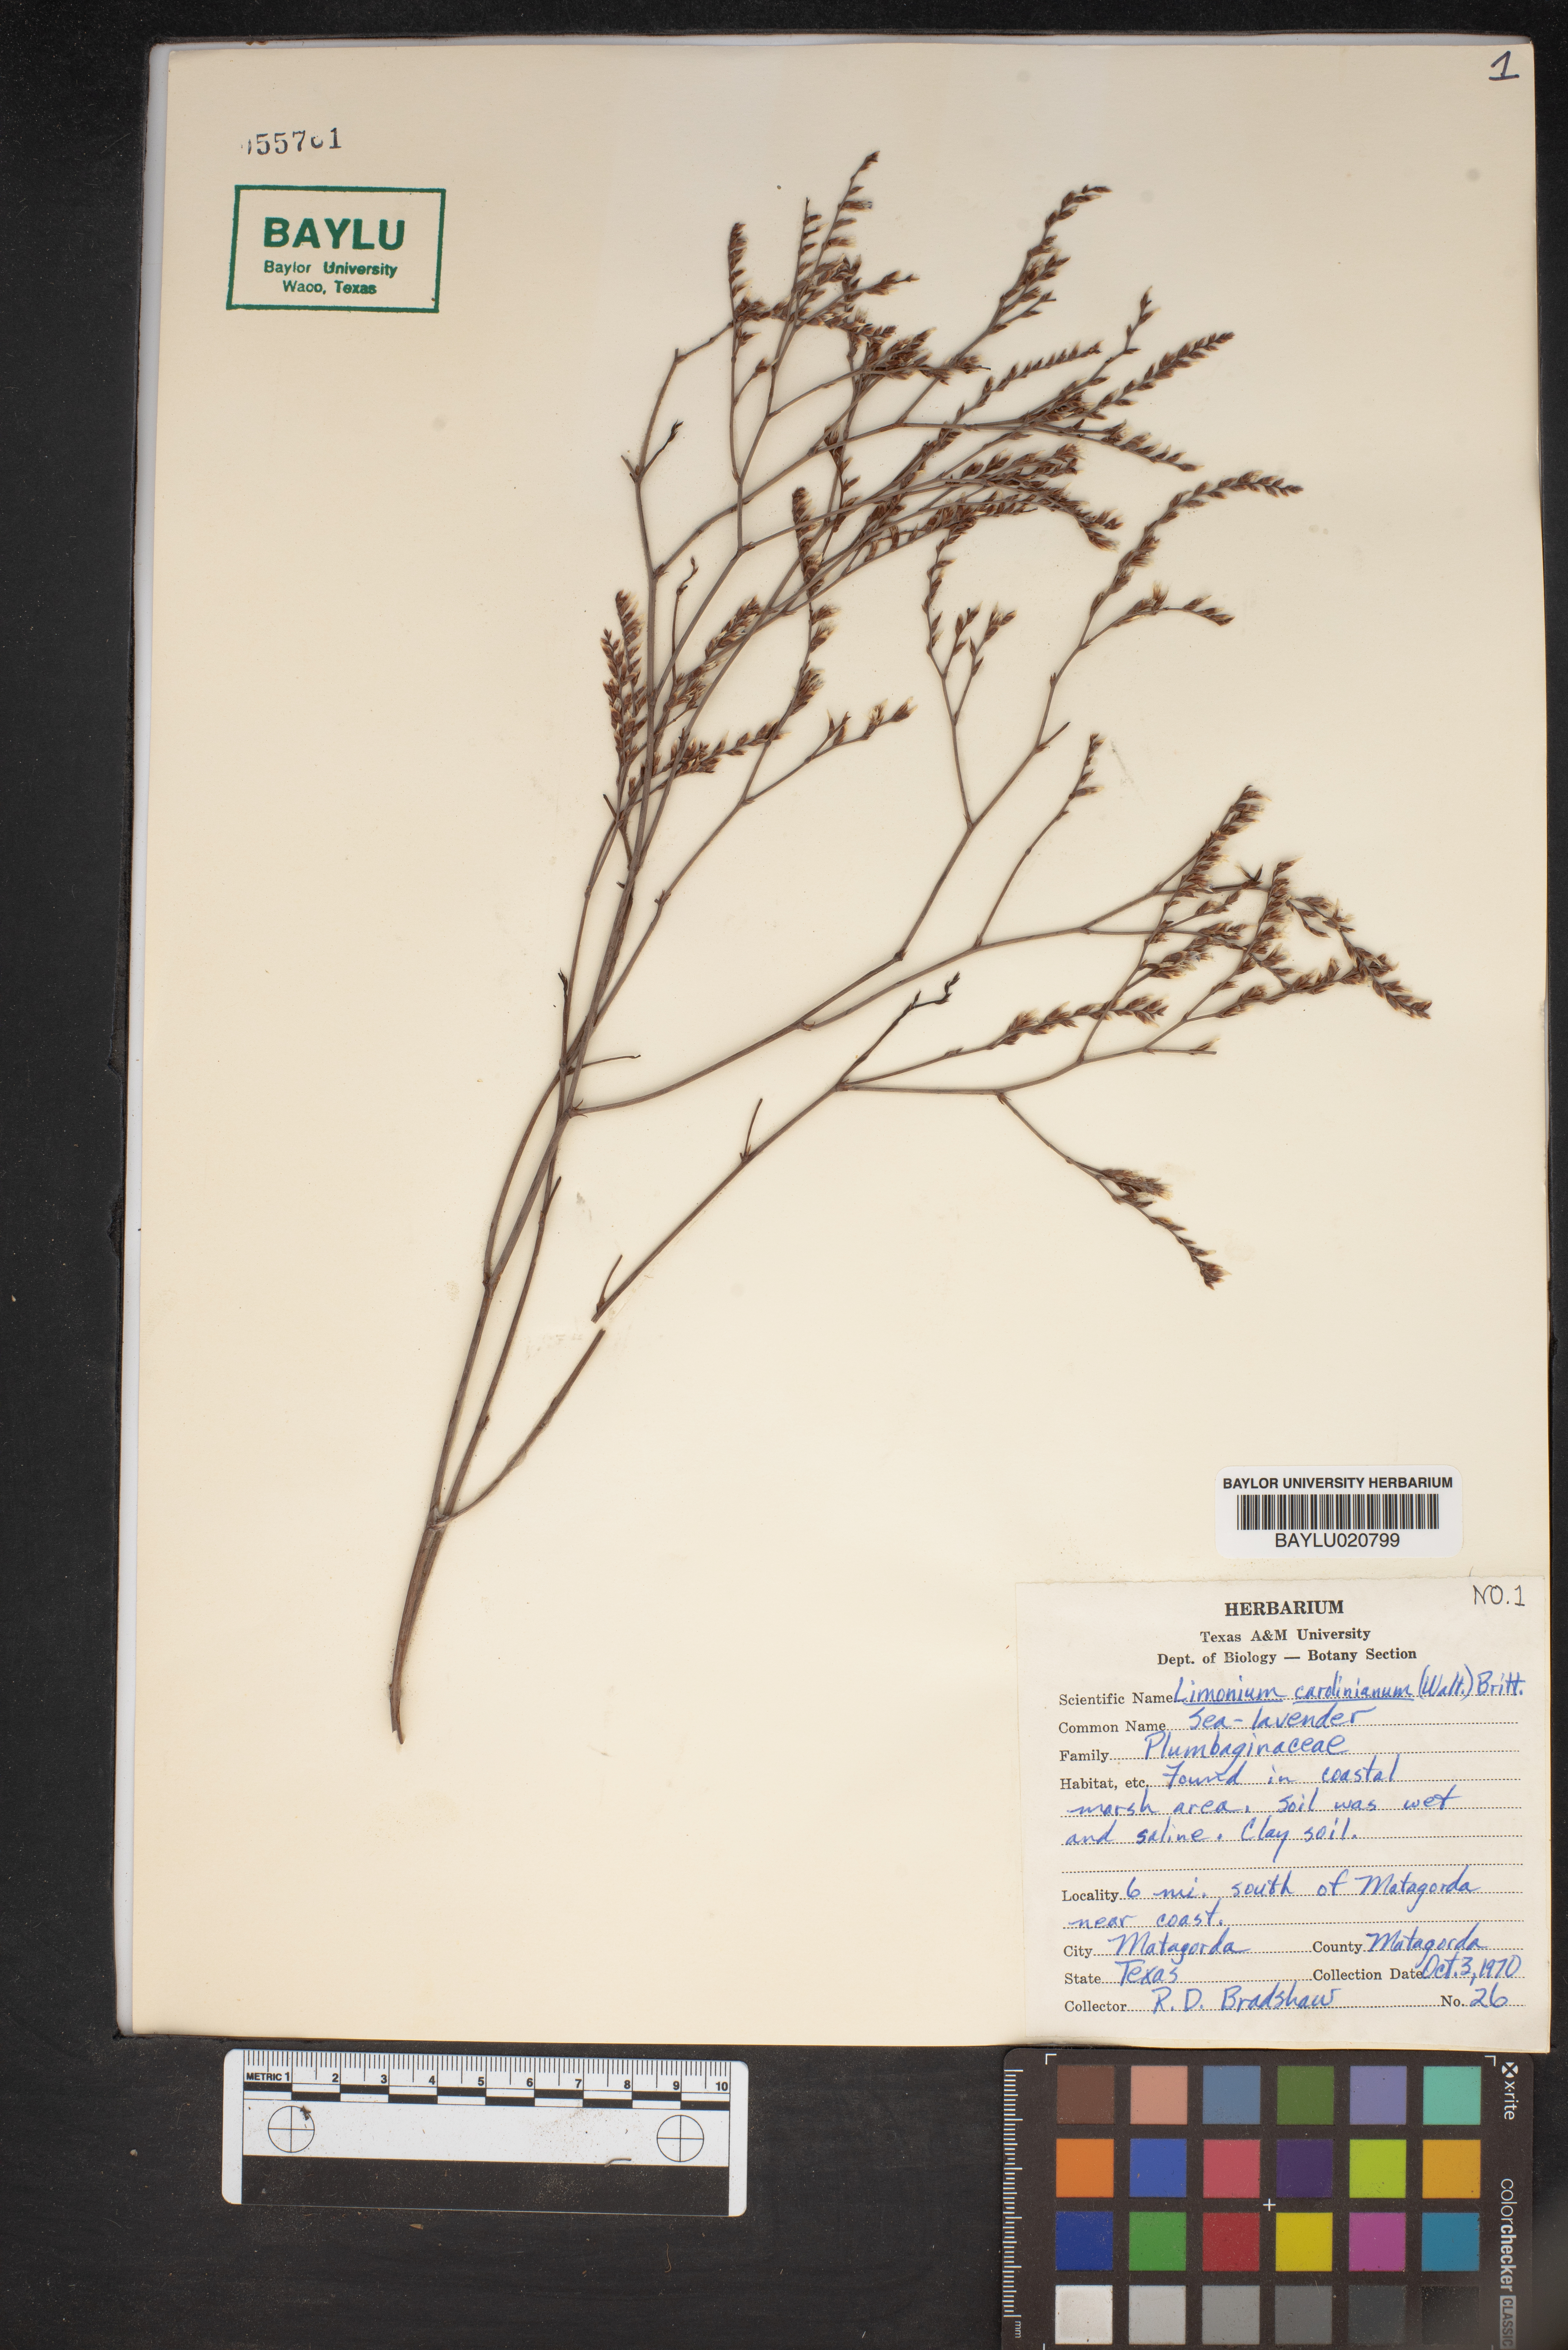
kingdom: Plantae
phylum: Tracheophyta
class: Magnoliopsida
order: Caryophyllales
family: Plumbaginaceae
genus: Limonium
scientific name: Limonium carolinianum
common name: Carolina sea lavender
